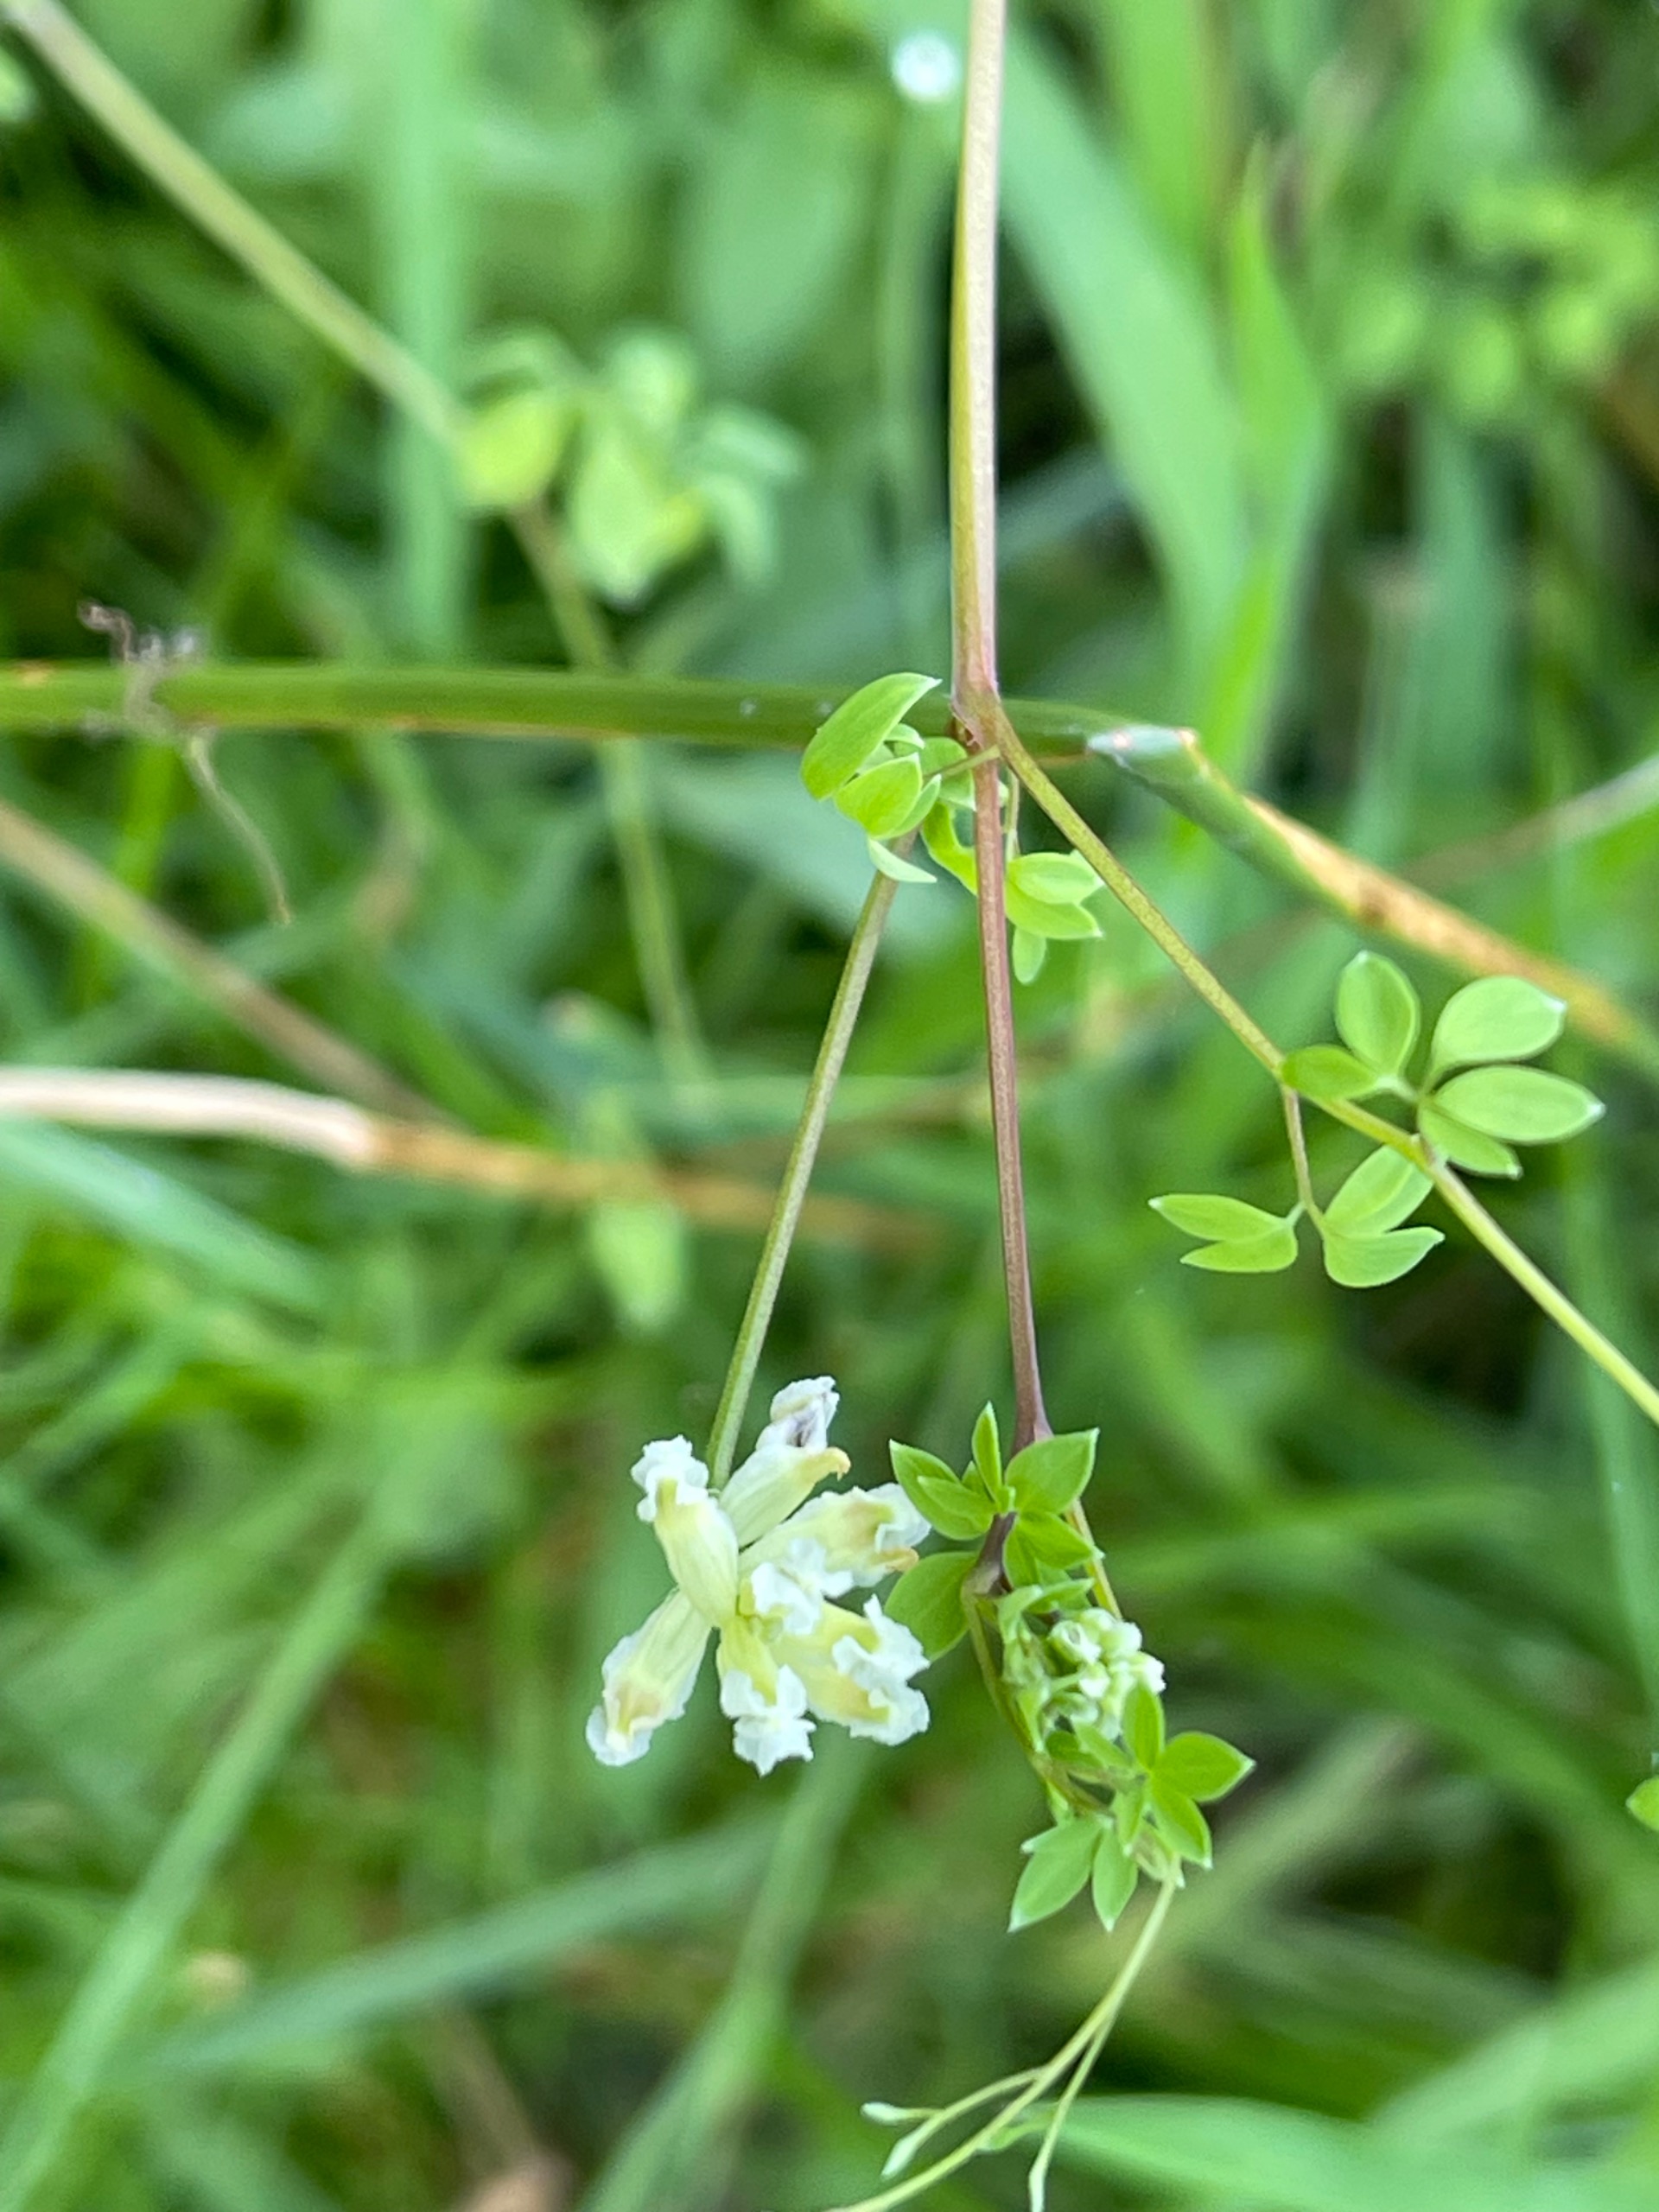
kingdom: Plantae
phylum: Tracheophyta
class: Magnoliopsida
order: Ranunculales
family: Papaveraceae
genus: Ceratocapnos
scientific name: Ceratocapnos claviculata
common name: Klatrende lærkespore
